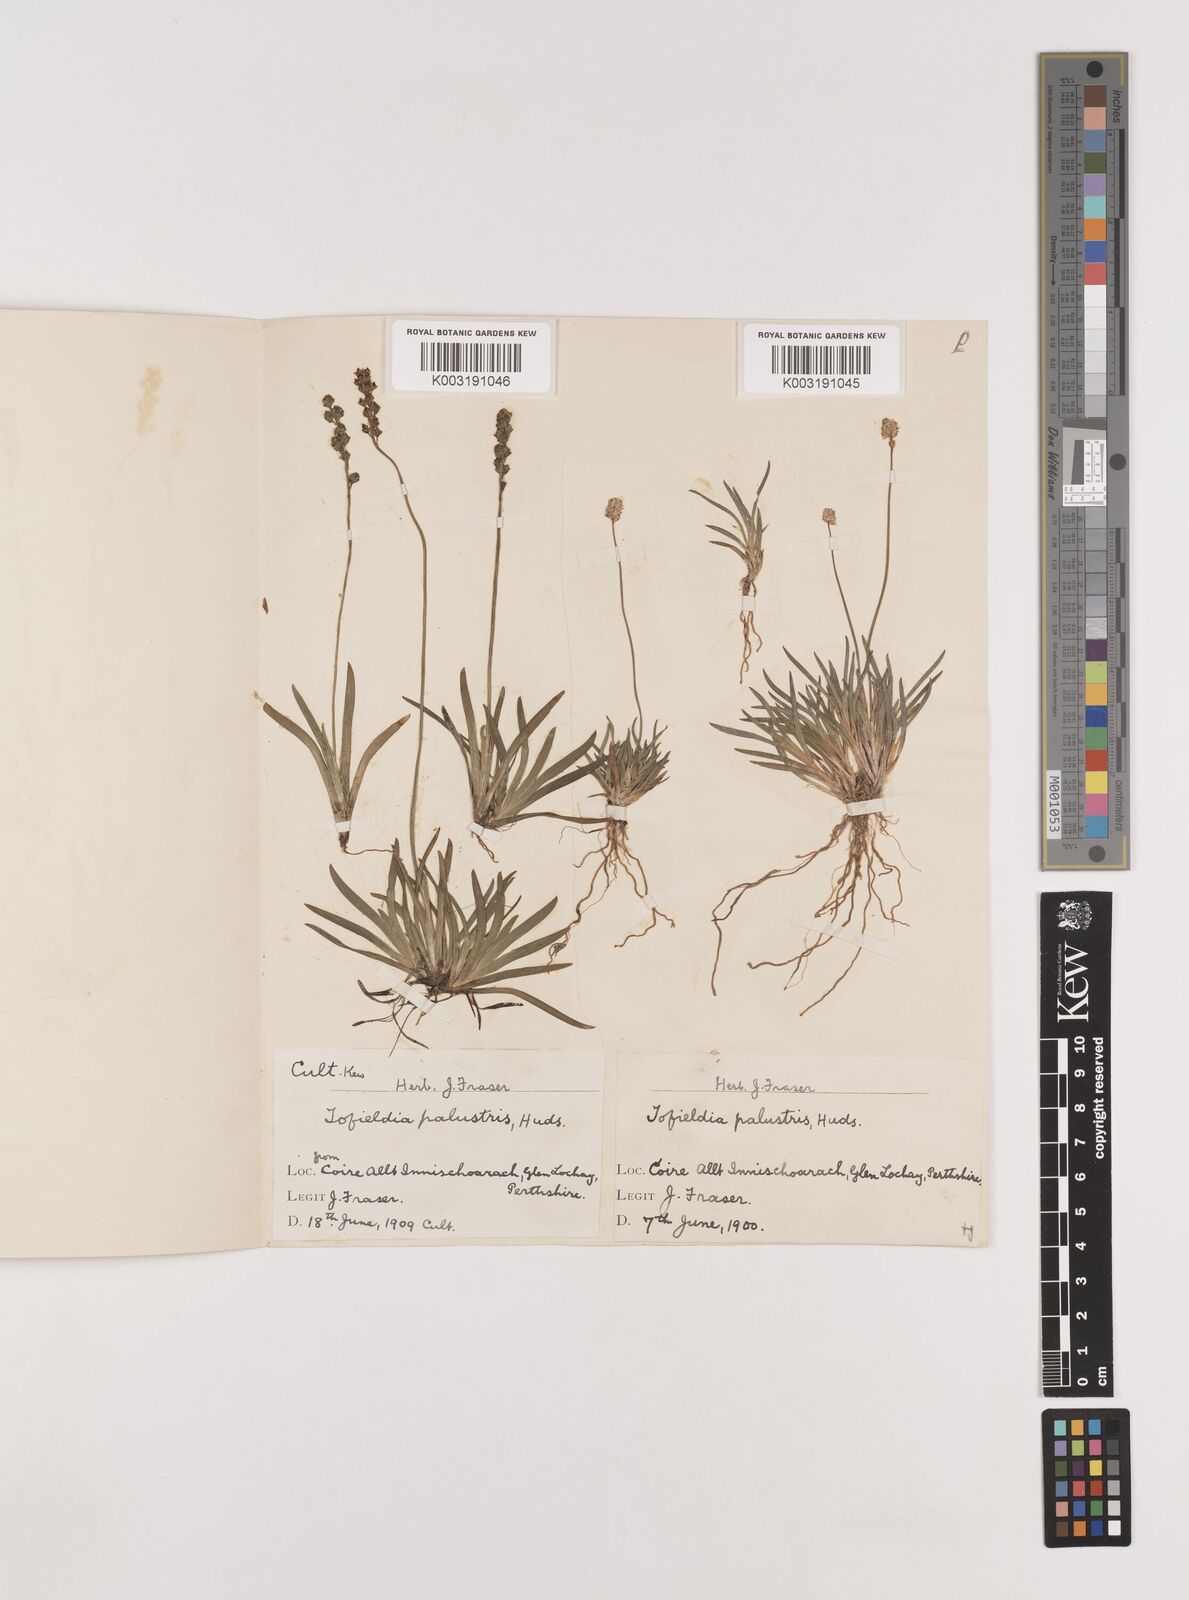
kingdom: Plantae
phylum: Tracheophyta
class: Liliopsida
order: Alismatales
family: Tofieldiaceae
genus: Tofieldia
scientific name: Tofieldia pusilla
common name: Scottish false asphodel
